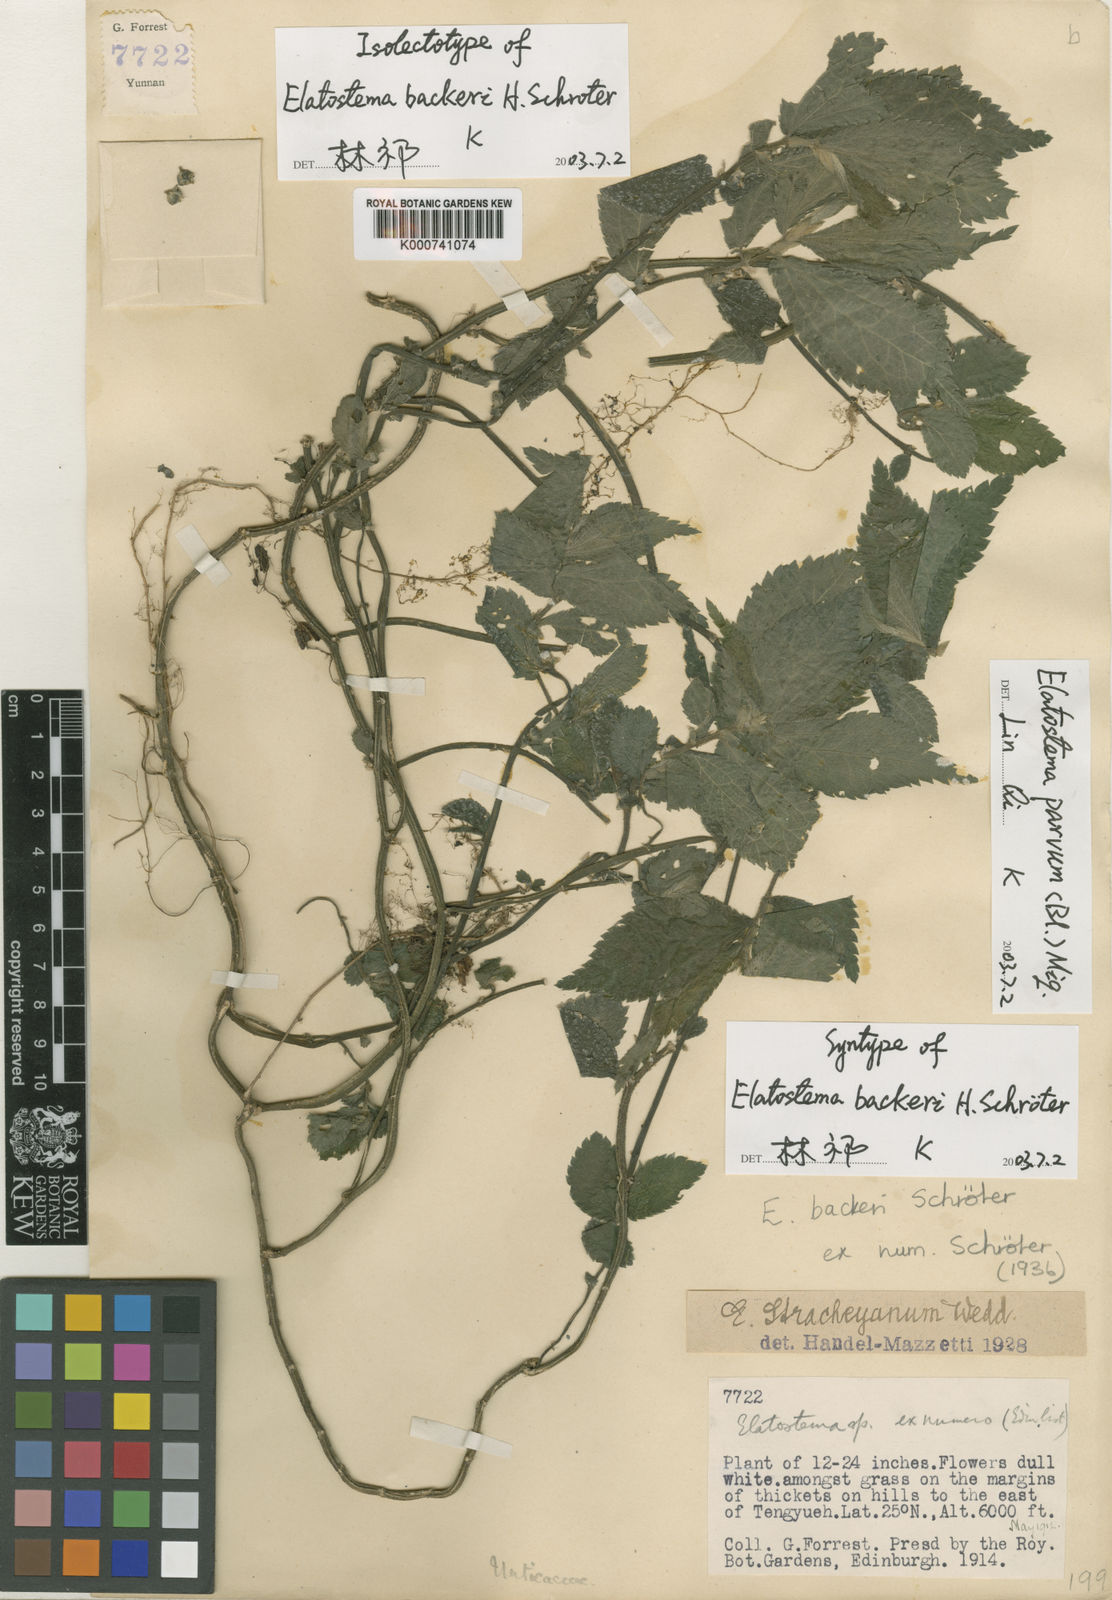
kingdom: Plantae
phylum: Tracheophyta
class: Magnoliopsida
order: Rosales
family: Urticaceae
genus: Elatostema
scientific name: Elatostema parvum
